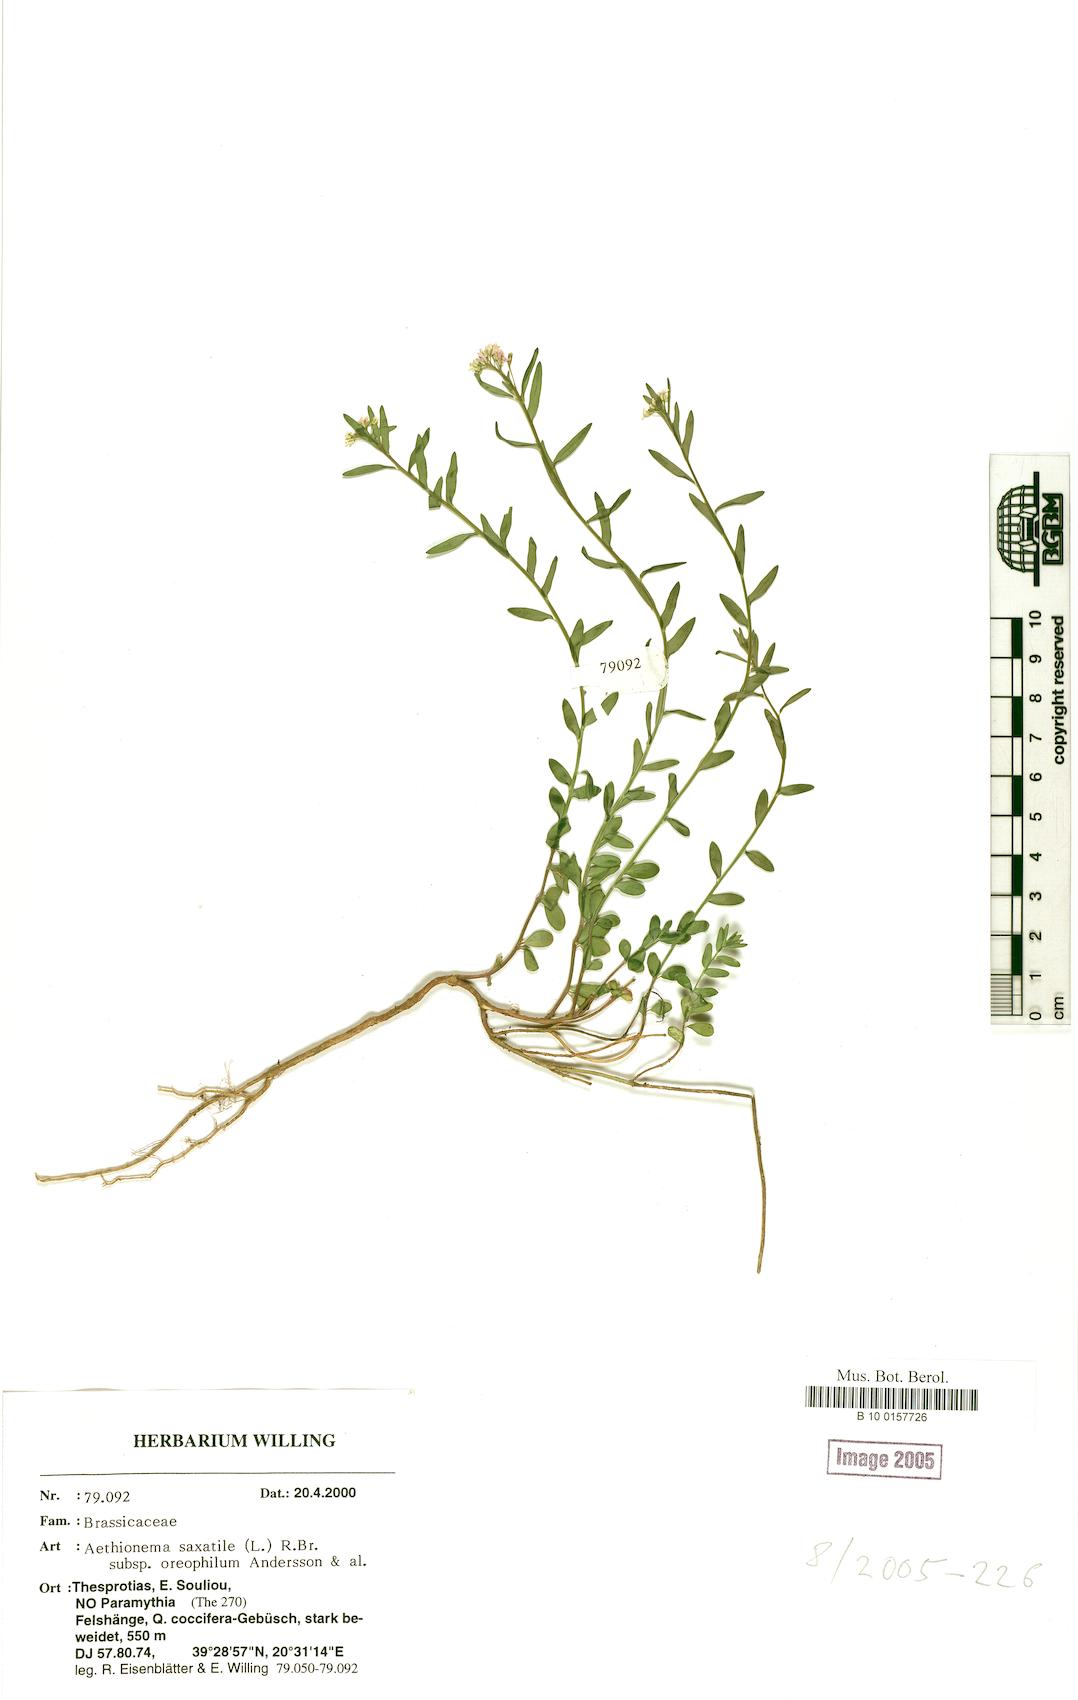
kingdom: Plantae
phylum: Tracheophyta
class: Magnoliopsida
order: Brassicales
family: Brassicaceae
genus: Aethionema
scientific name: Aethionema saxatile
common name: Burnt candytuft
